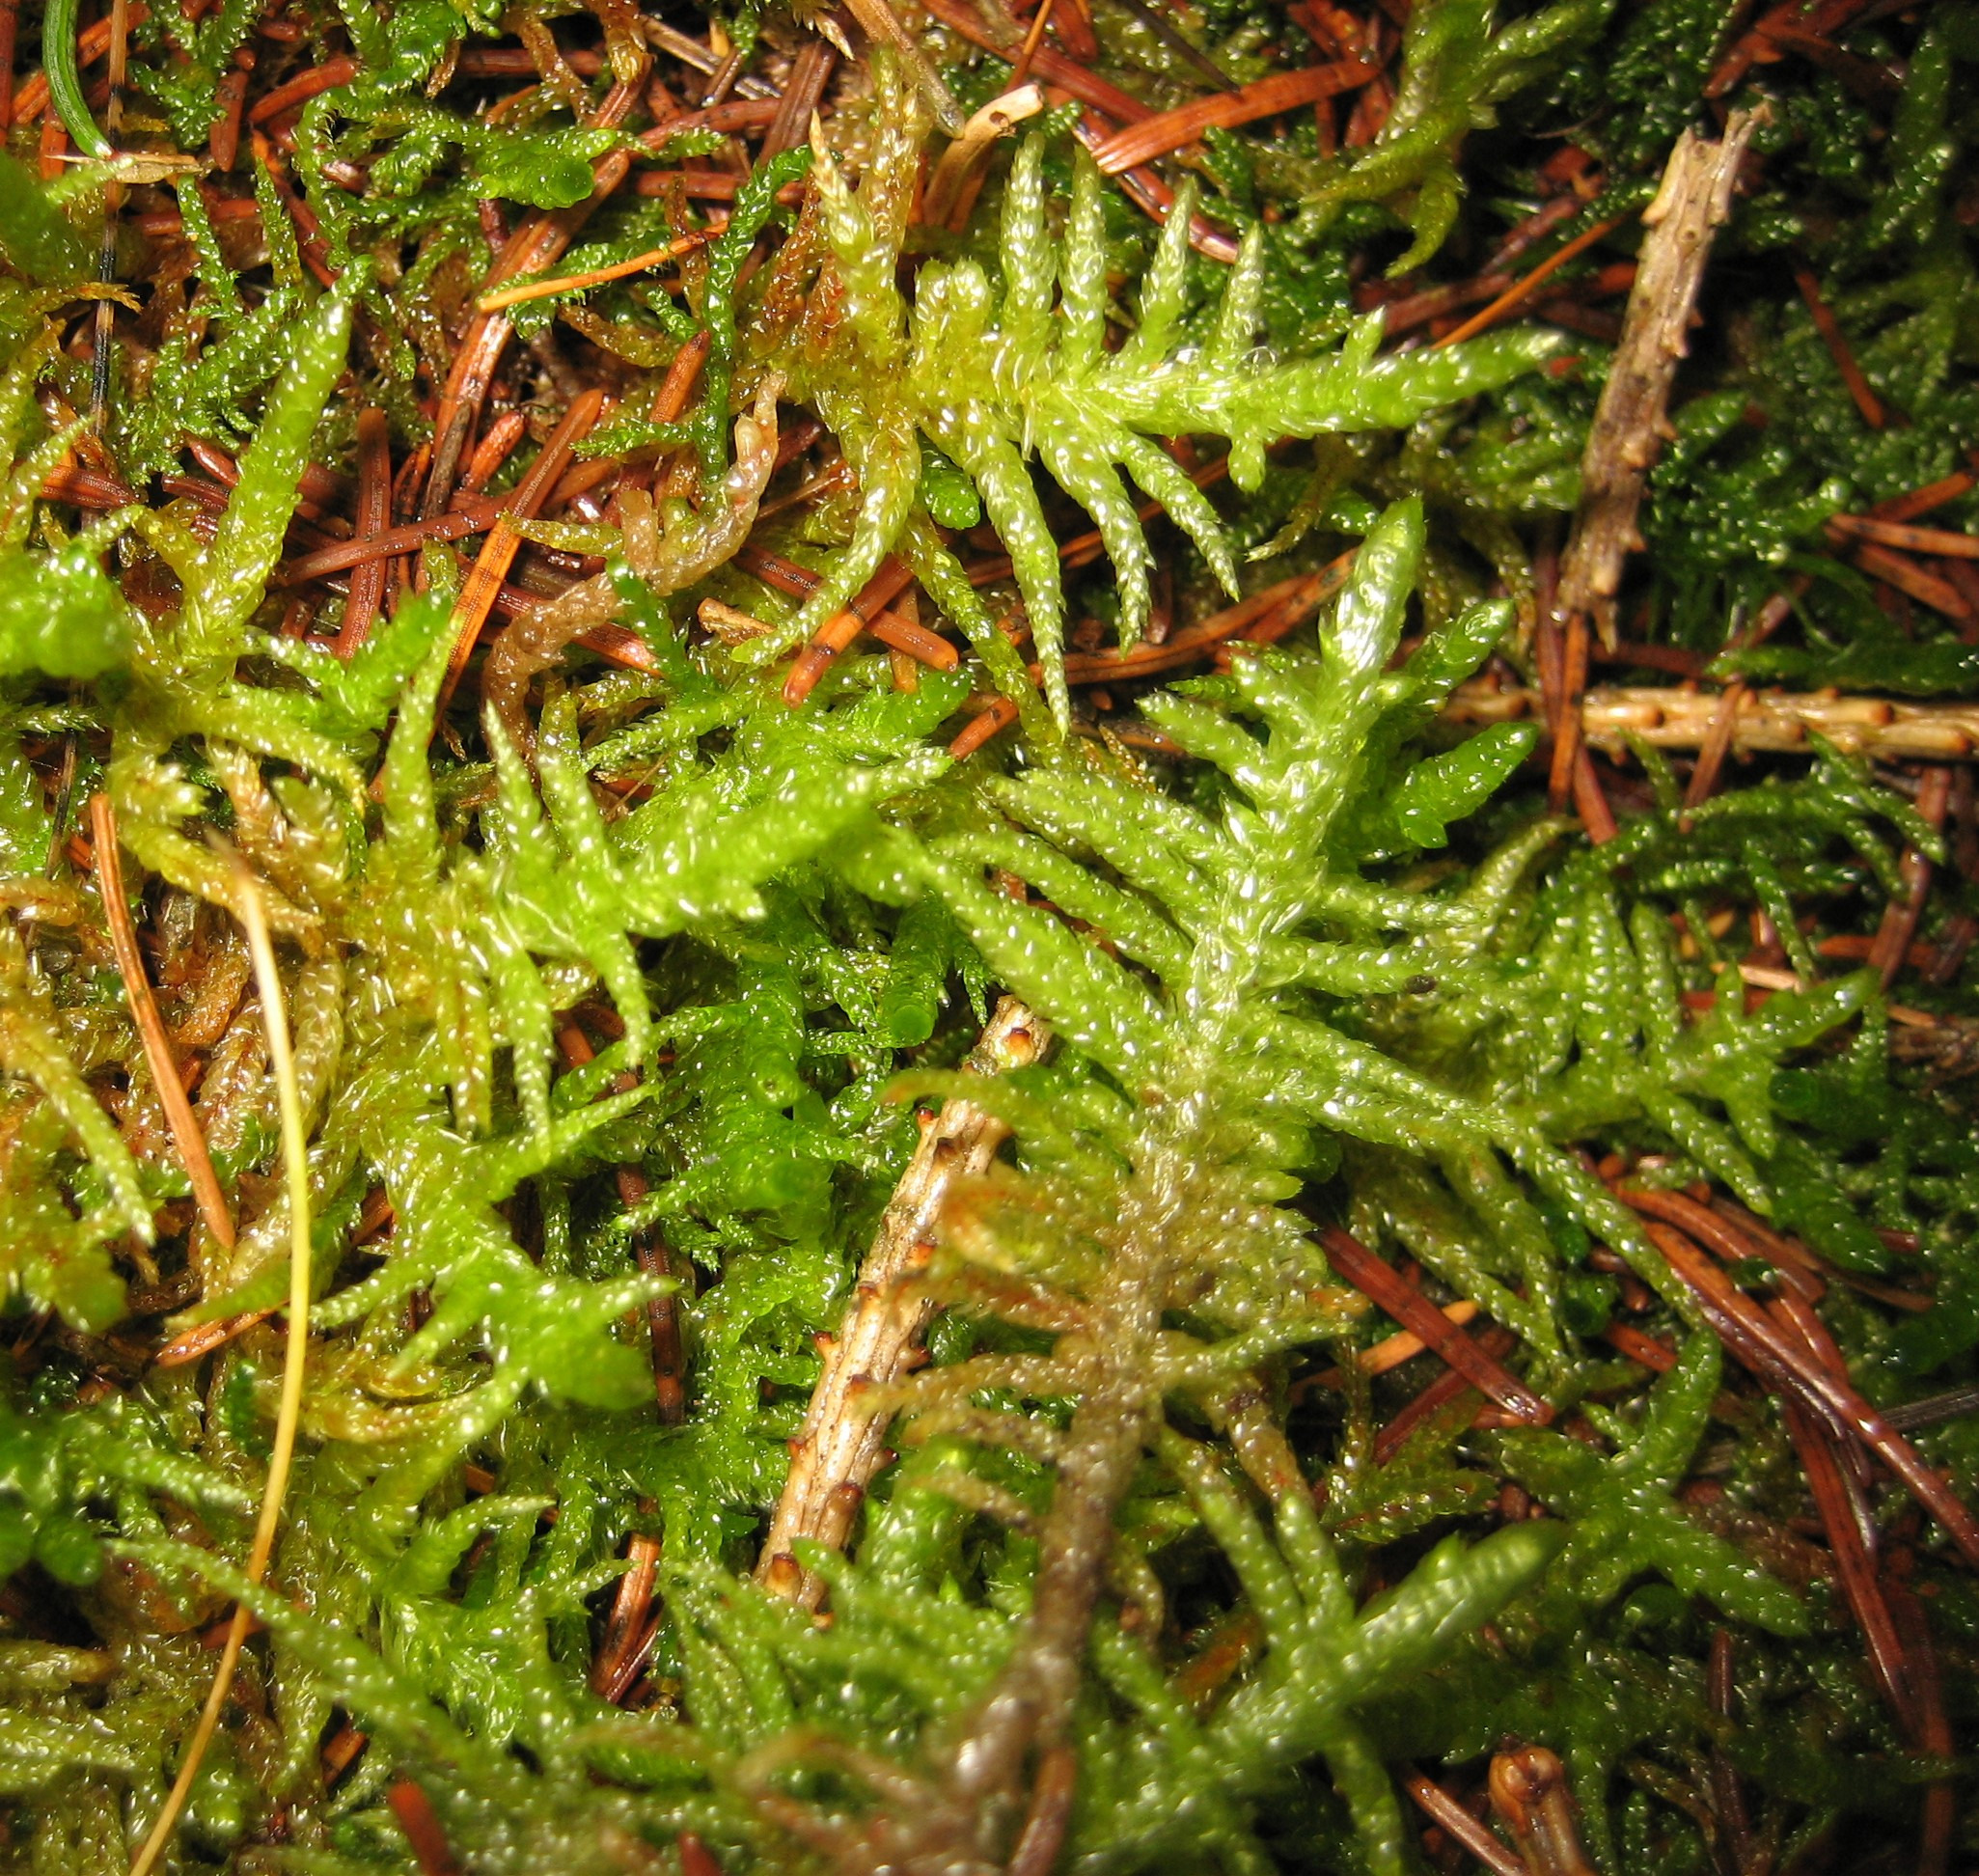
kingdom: Plantae
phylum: Bryophyta
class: Bryopsida
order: Hypnales
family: Brachytheciaceae
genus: Pseudoscleropodium
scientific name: Pseudoscleropodium purum
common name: Hulbladet fedtmos
